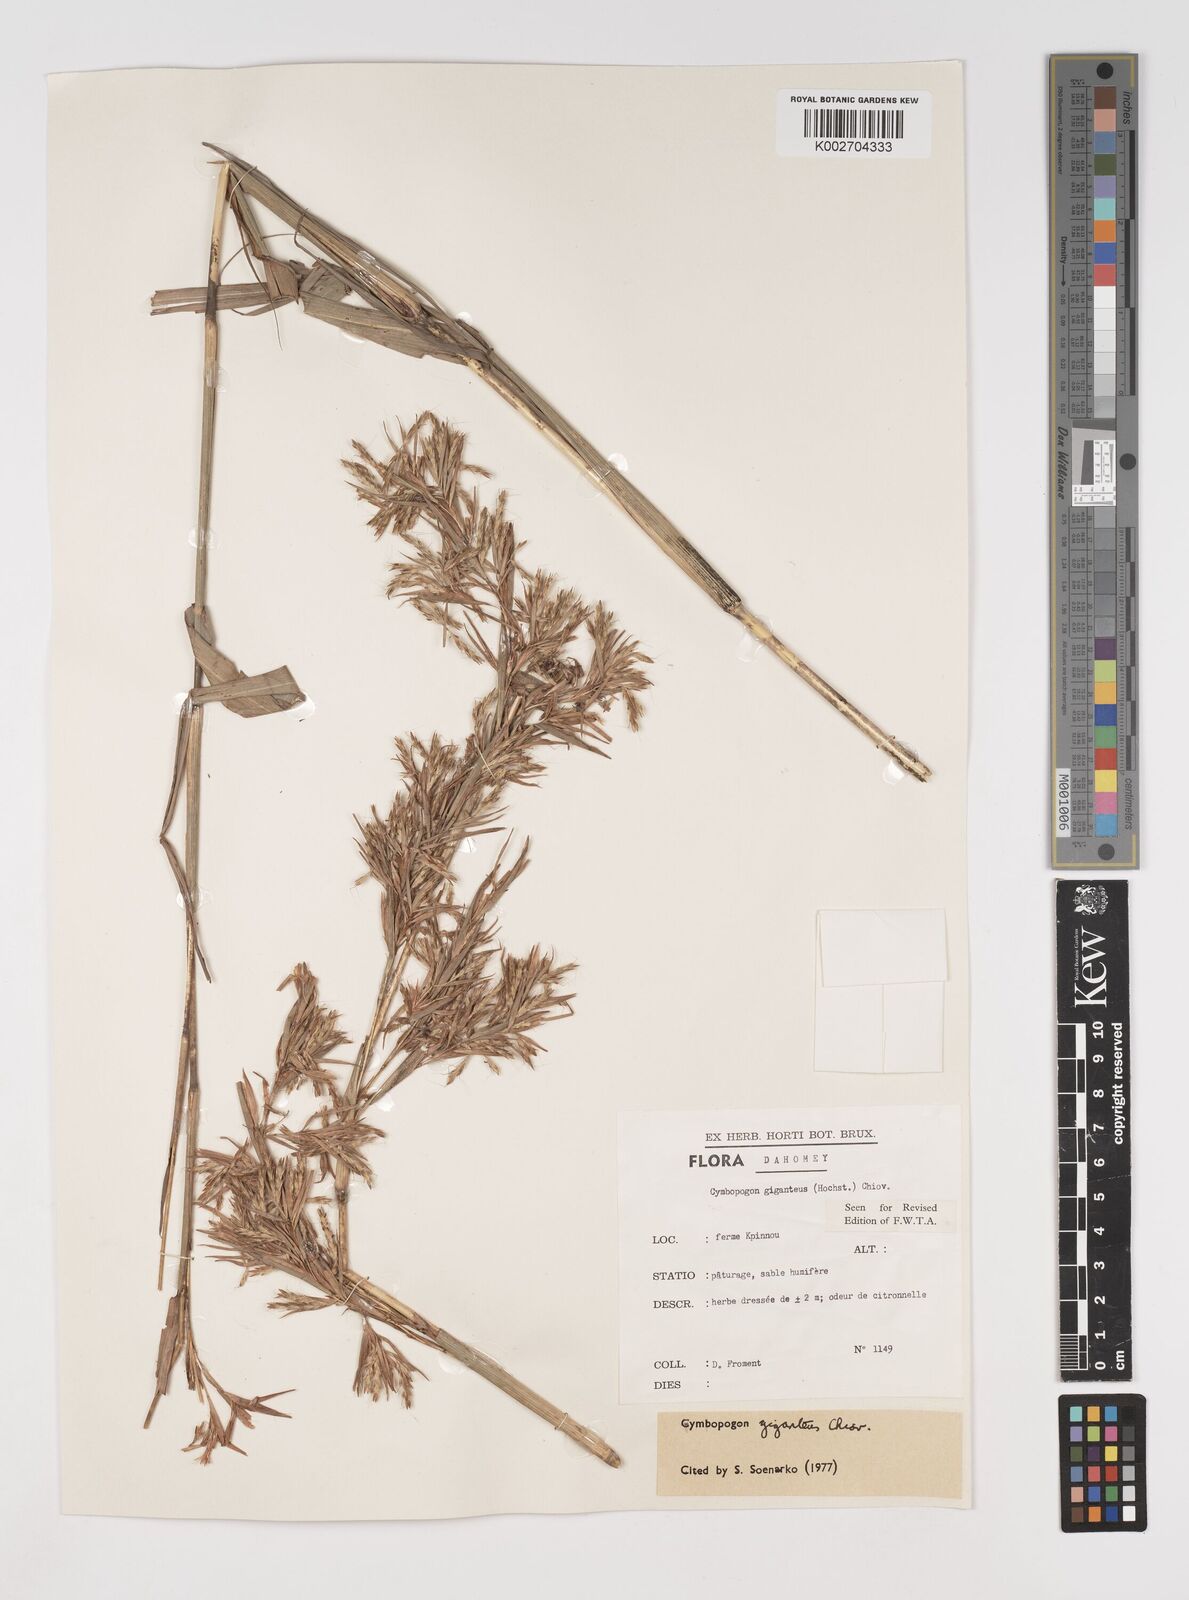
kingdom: Plantae
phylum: Tracheophyta
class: Liliopsida
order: Poales
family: Poaceae
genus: Cymbopogon
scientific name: Cymbopogon giganteus
